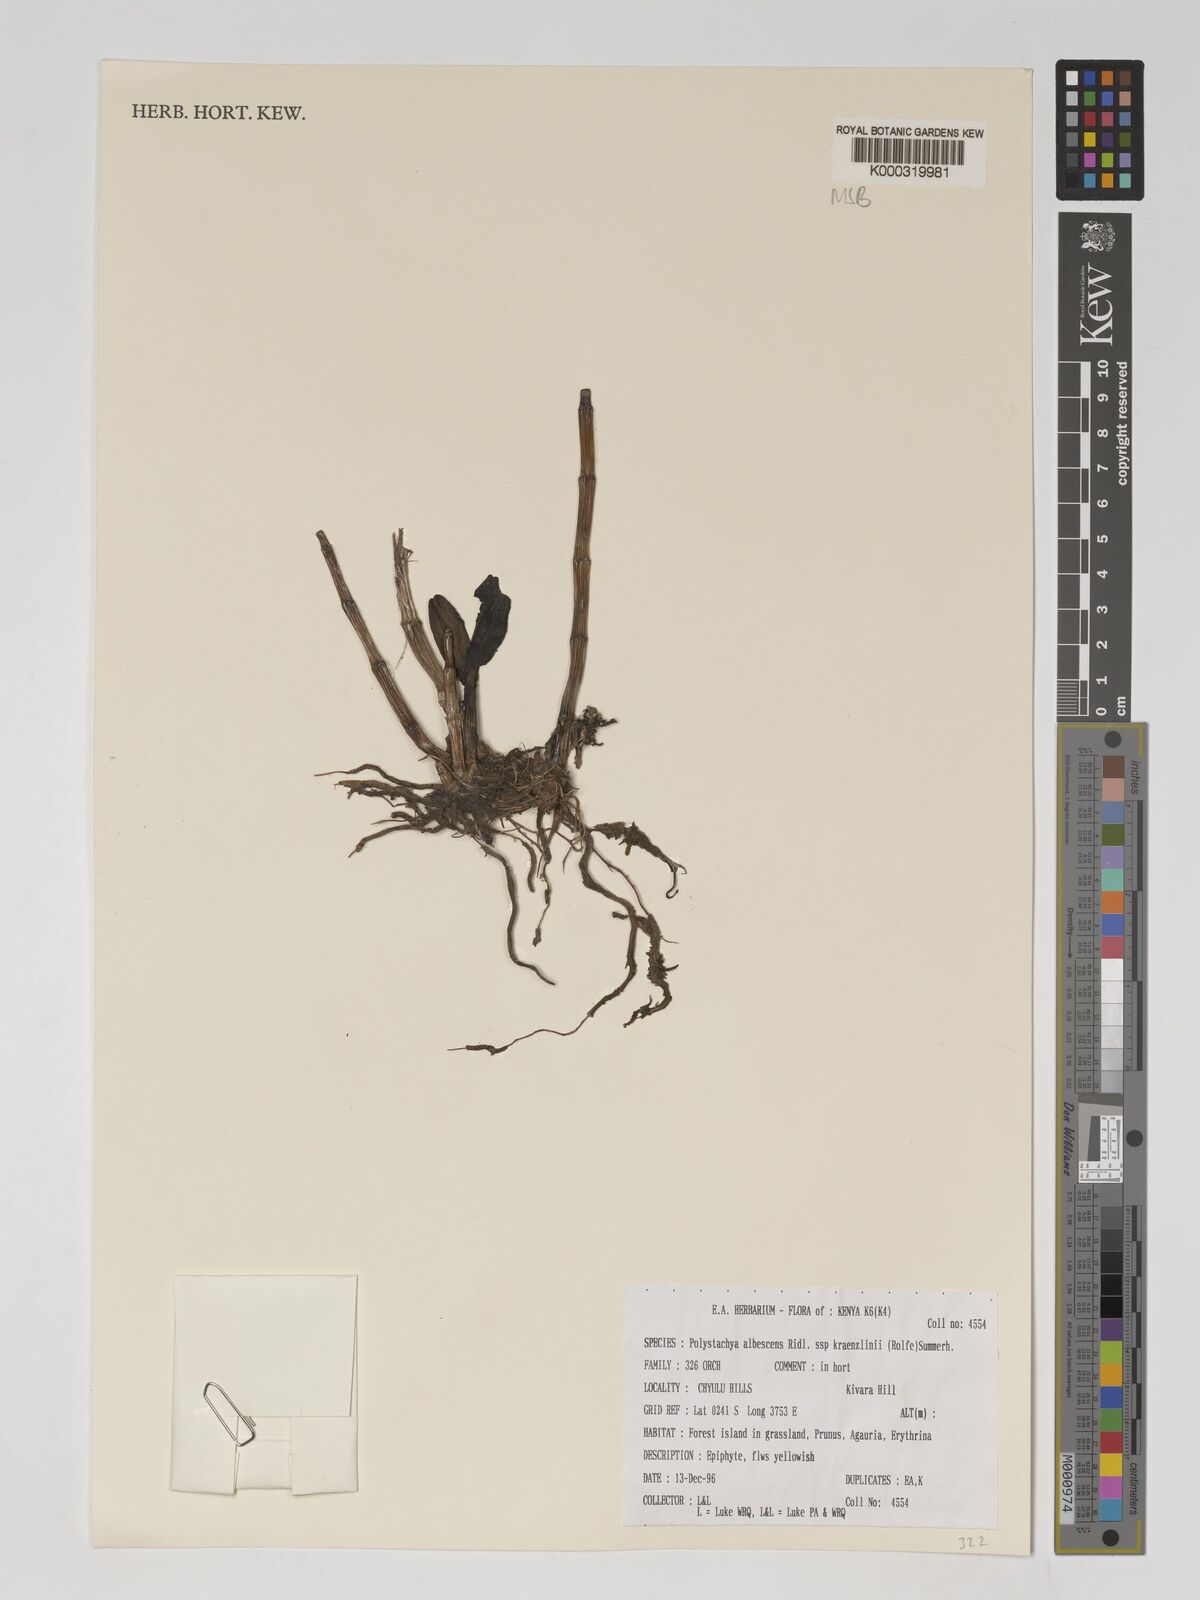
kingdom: Plantae
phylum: Tracheophyta
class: Liliopsida
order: Asparagales
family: Orchidaceae
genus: Polystachya
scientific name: Polystachya albescens
